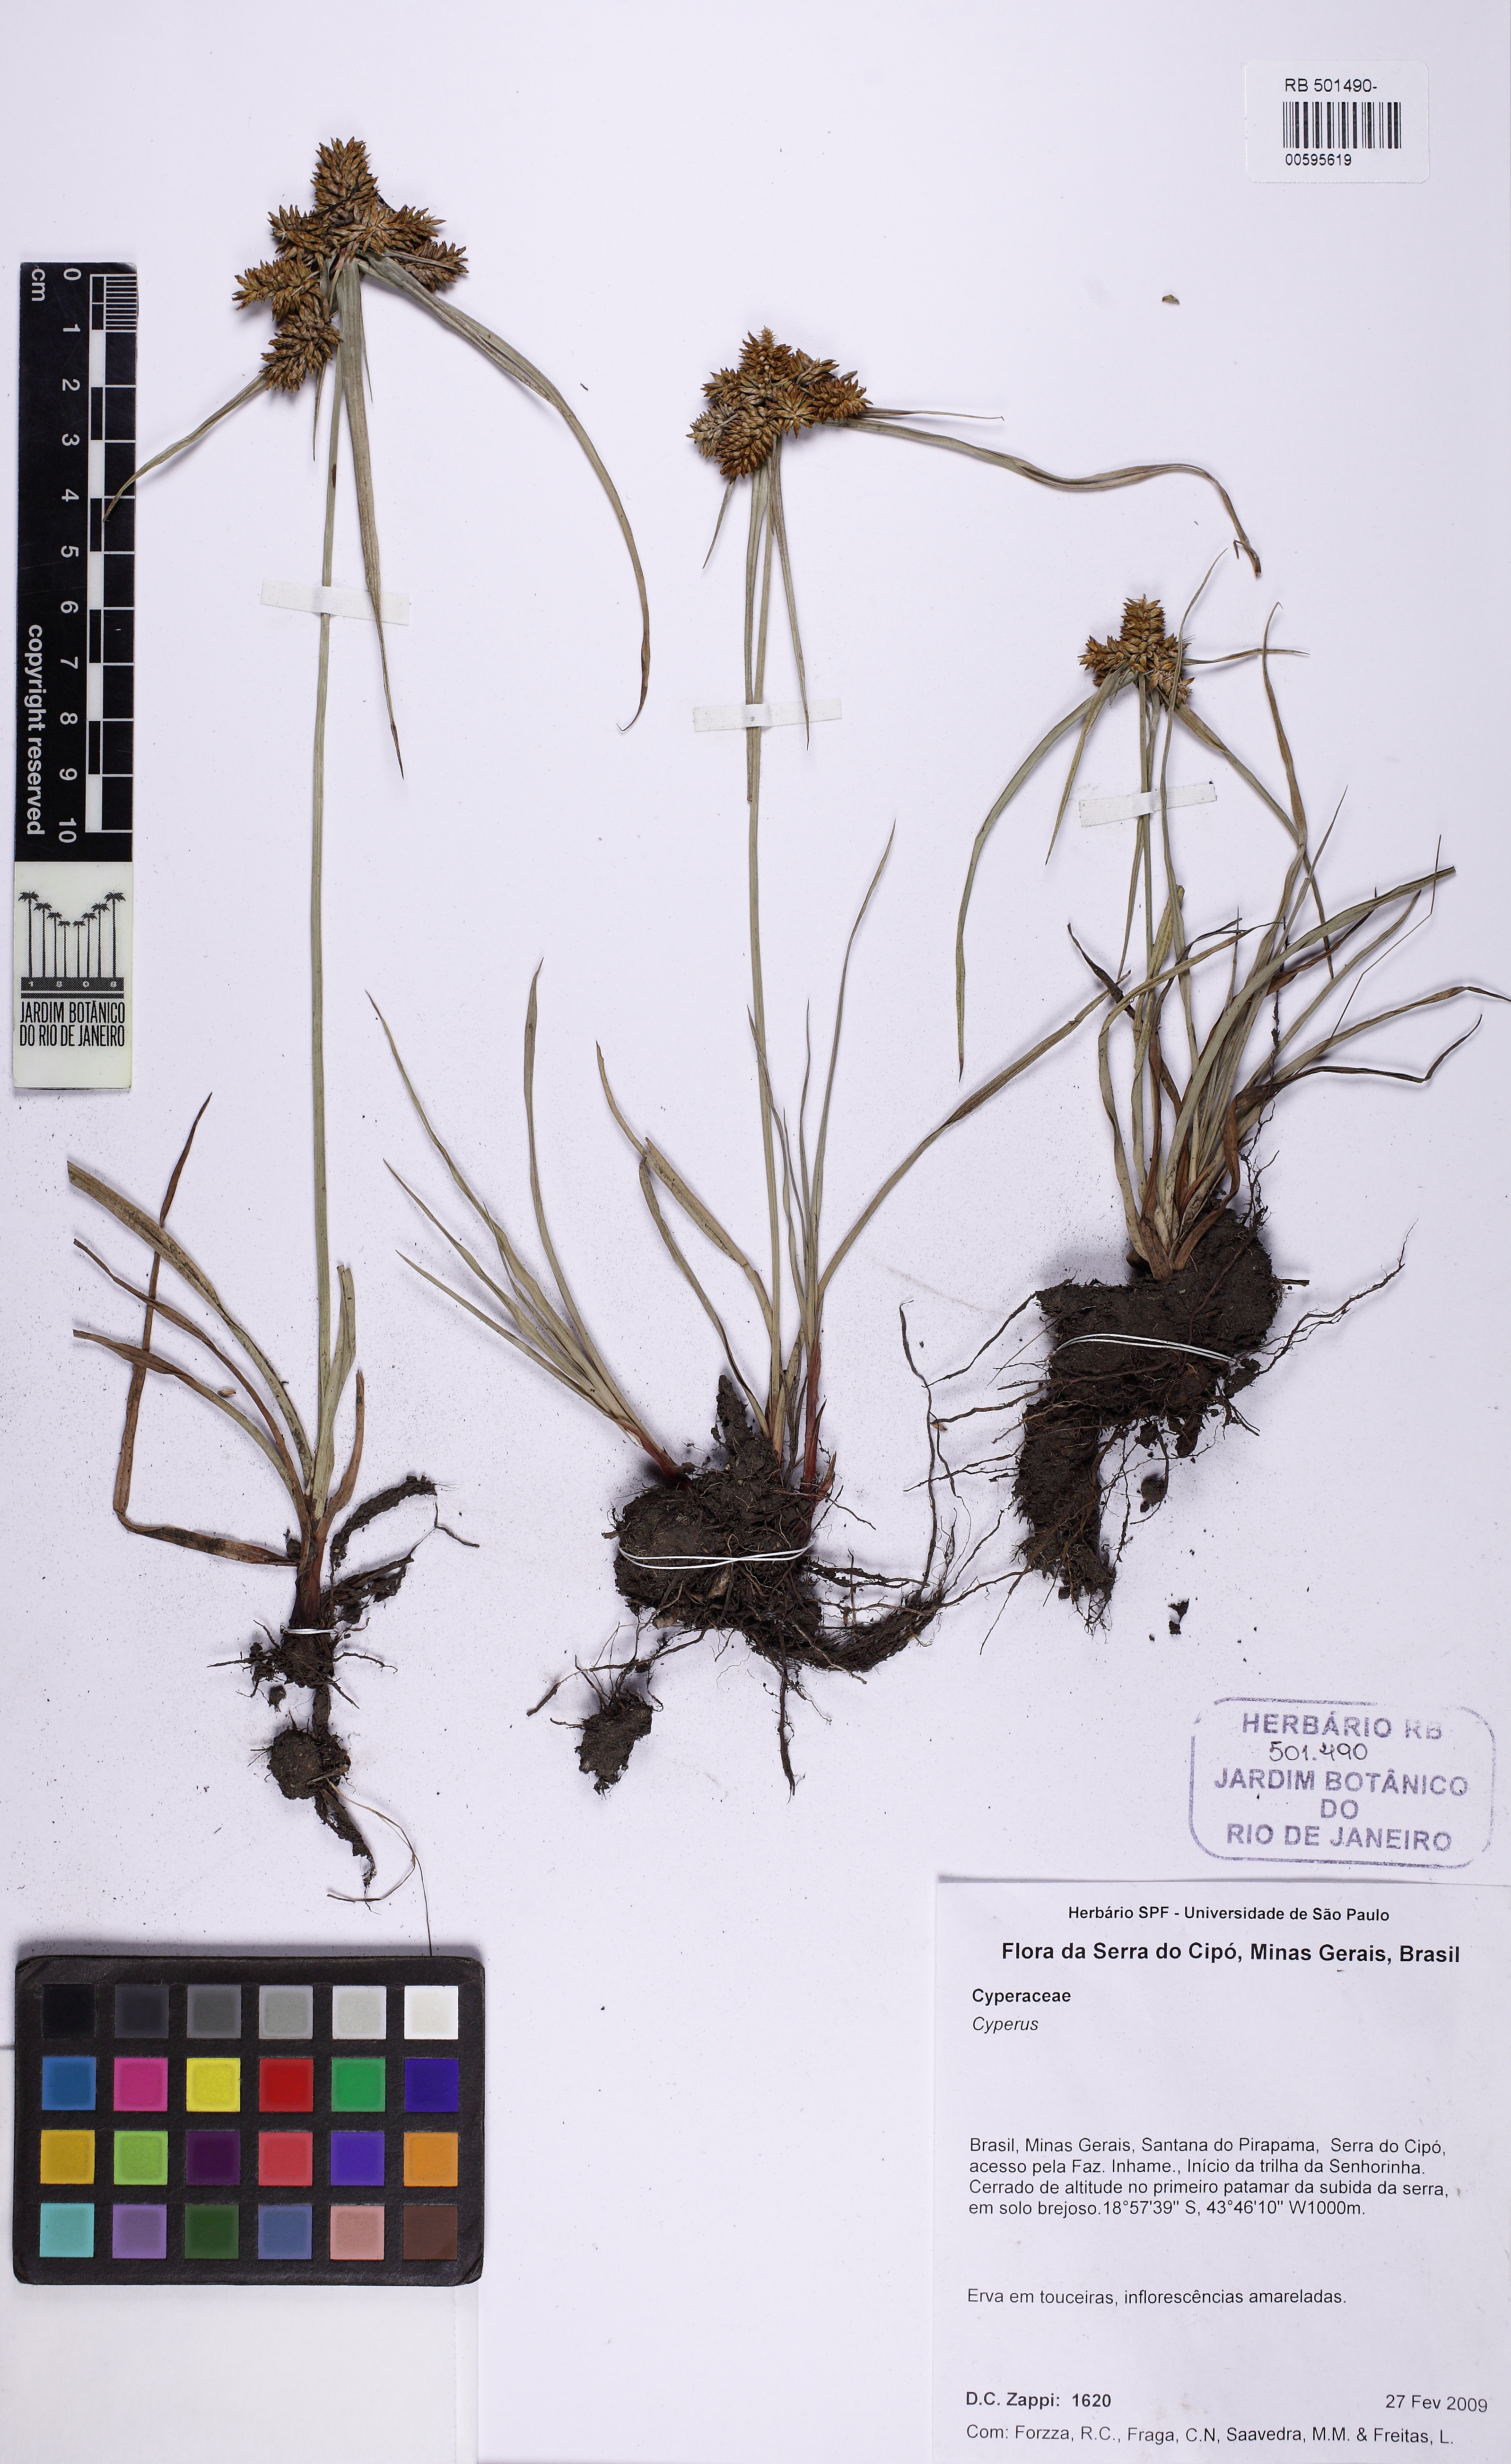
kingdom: Plantae
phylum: Tracheophyta
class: Liliopsida
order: Poales
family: Cyperaceae
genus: Cyperus
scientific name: Cyperus aggregatus
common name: Inflatedscale flatsedge
